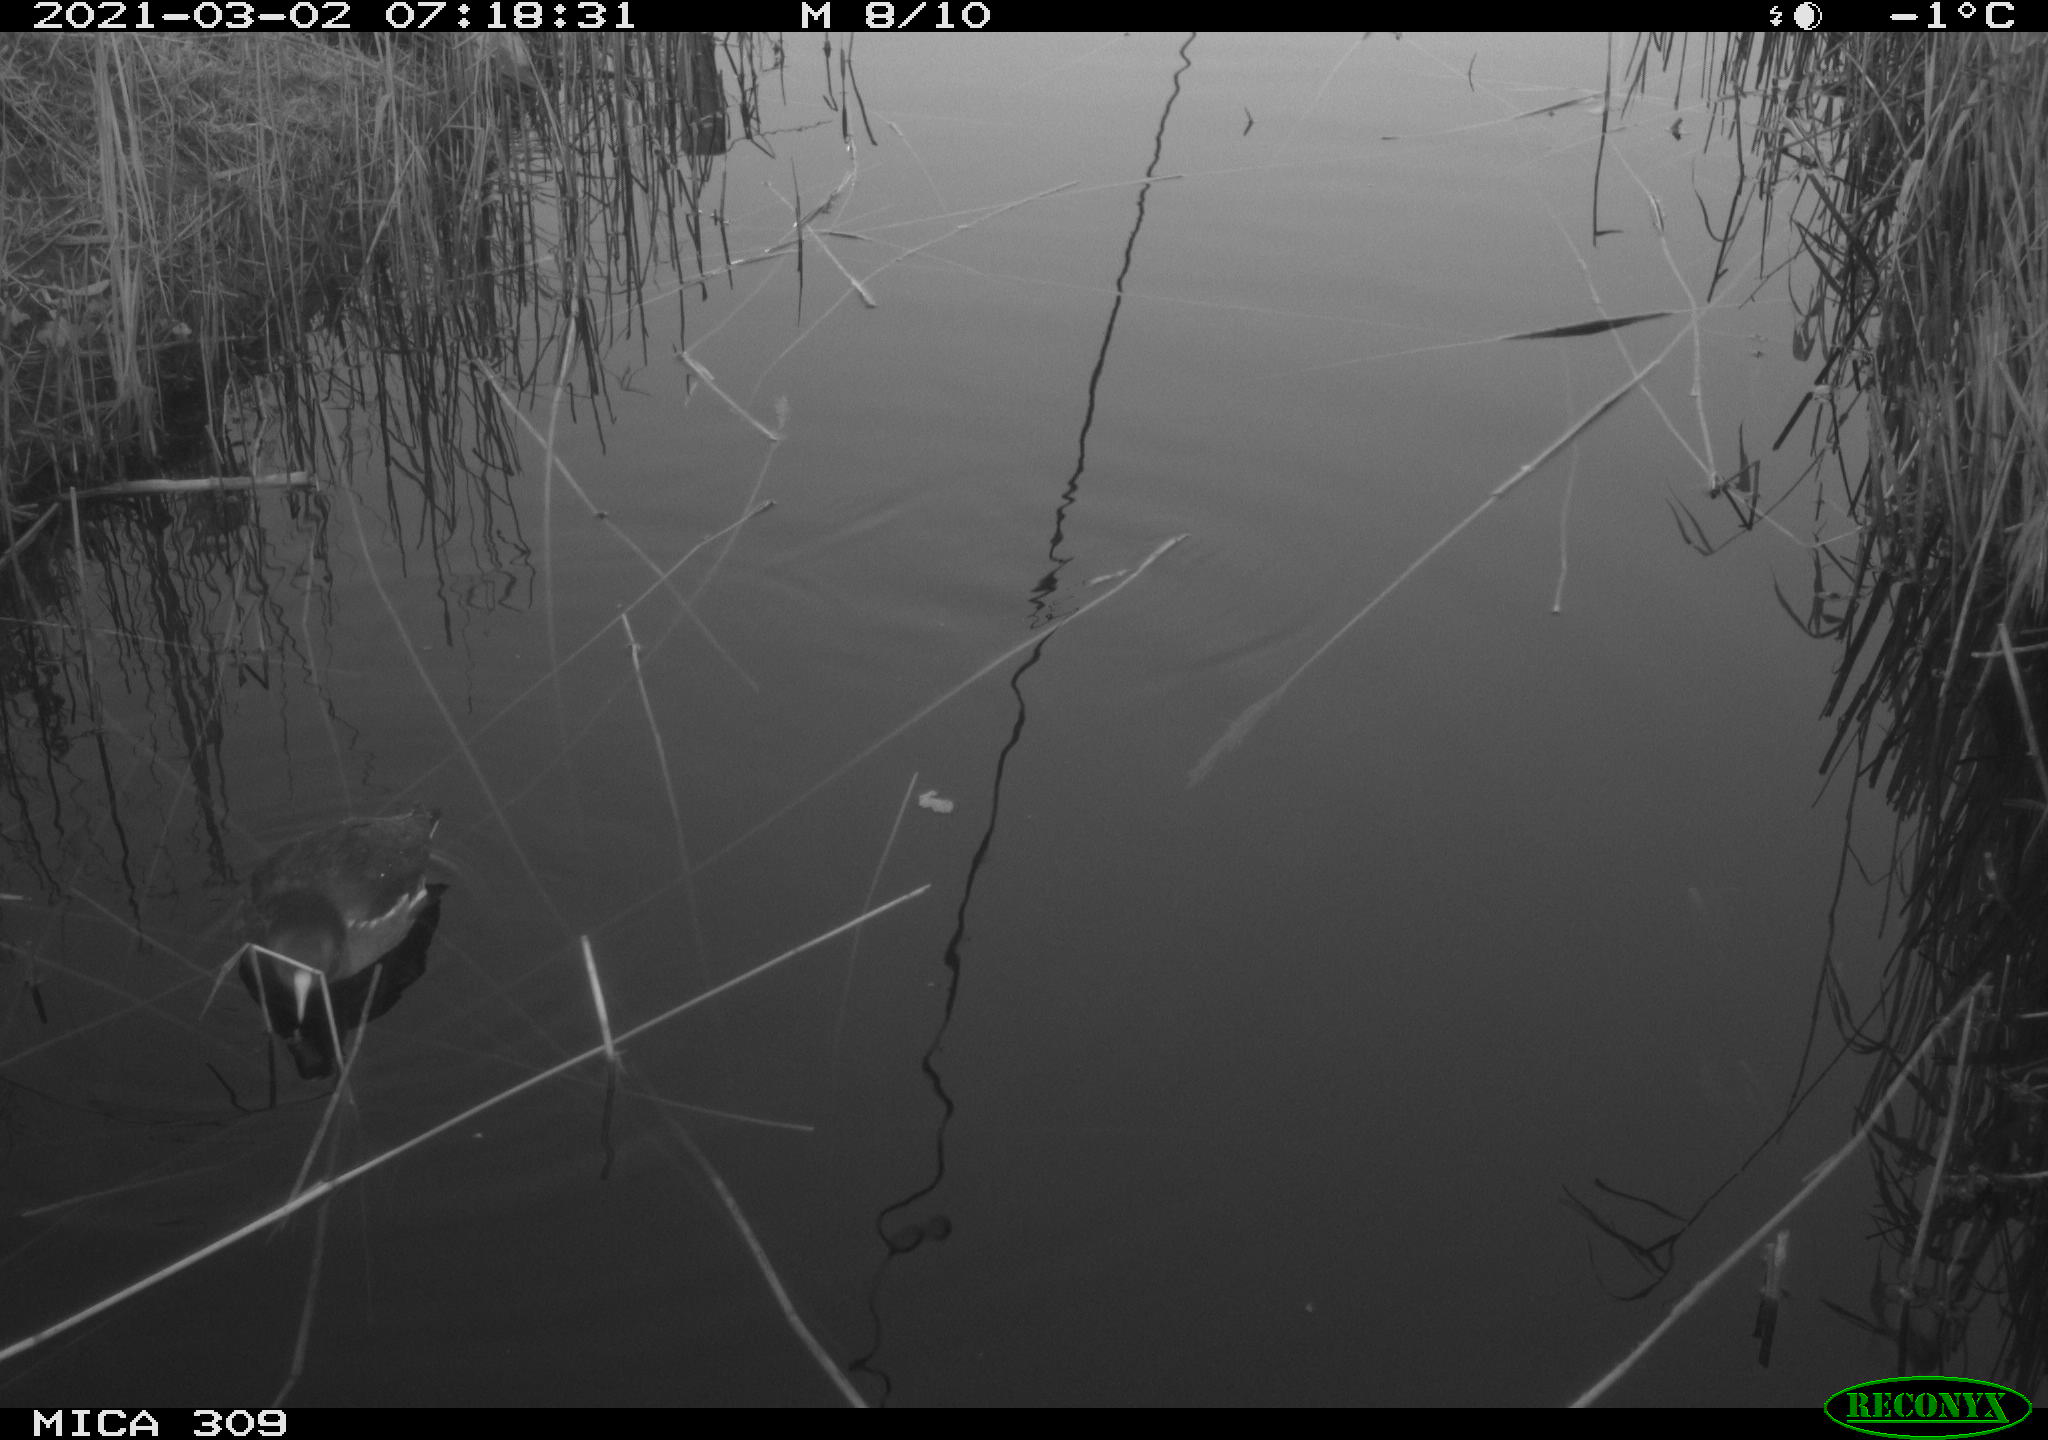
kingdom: Animalia
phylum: Chordata
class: Aves
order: Gruiformes
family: Rallidae
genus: Gallinula
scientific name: Gallinula chloropus
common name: Common moorhen
